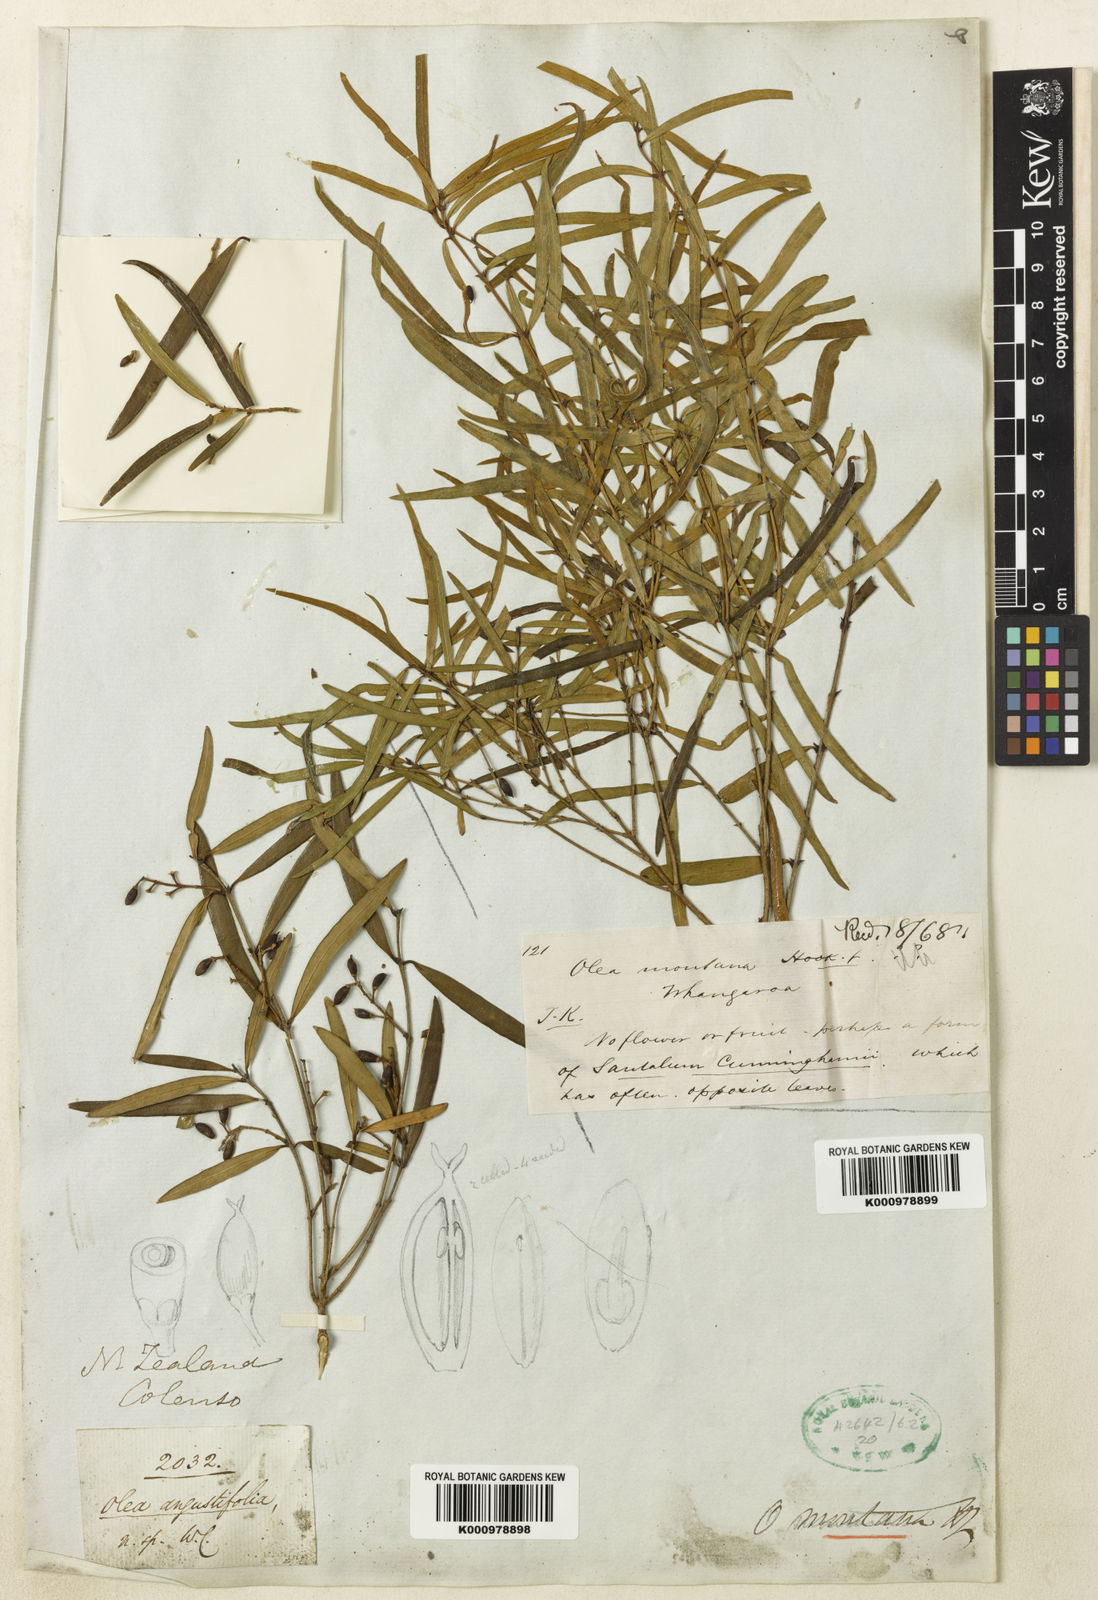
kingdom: Plantae
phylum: Tracheophyta
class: Magnoliopsida
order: Lamiales
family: Oleaceae
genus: Nestegis
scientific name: Nestegis montana
